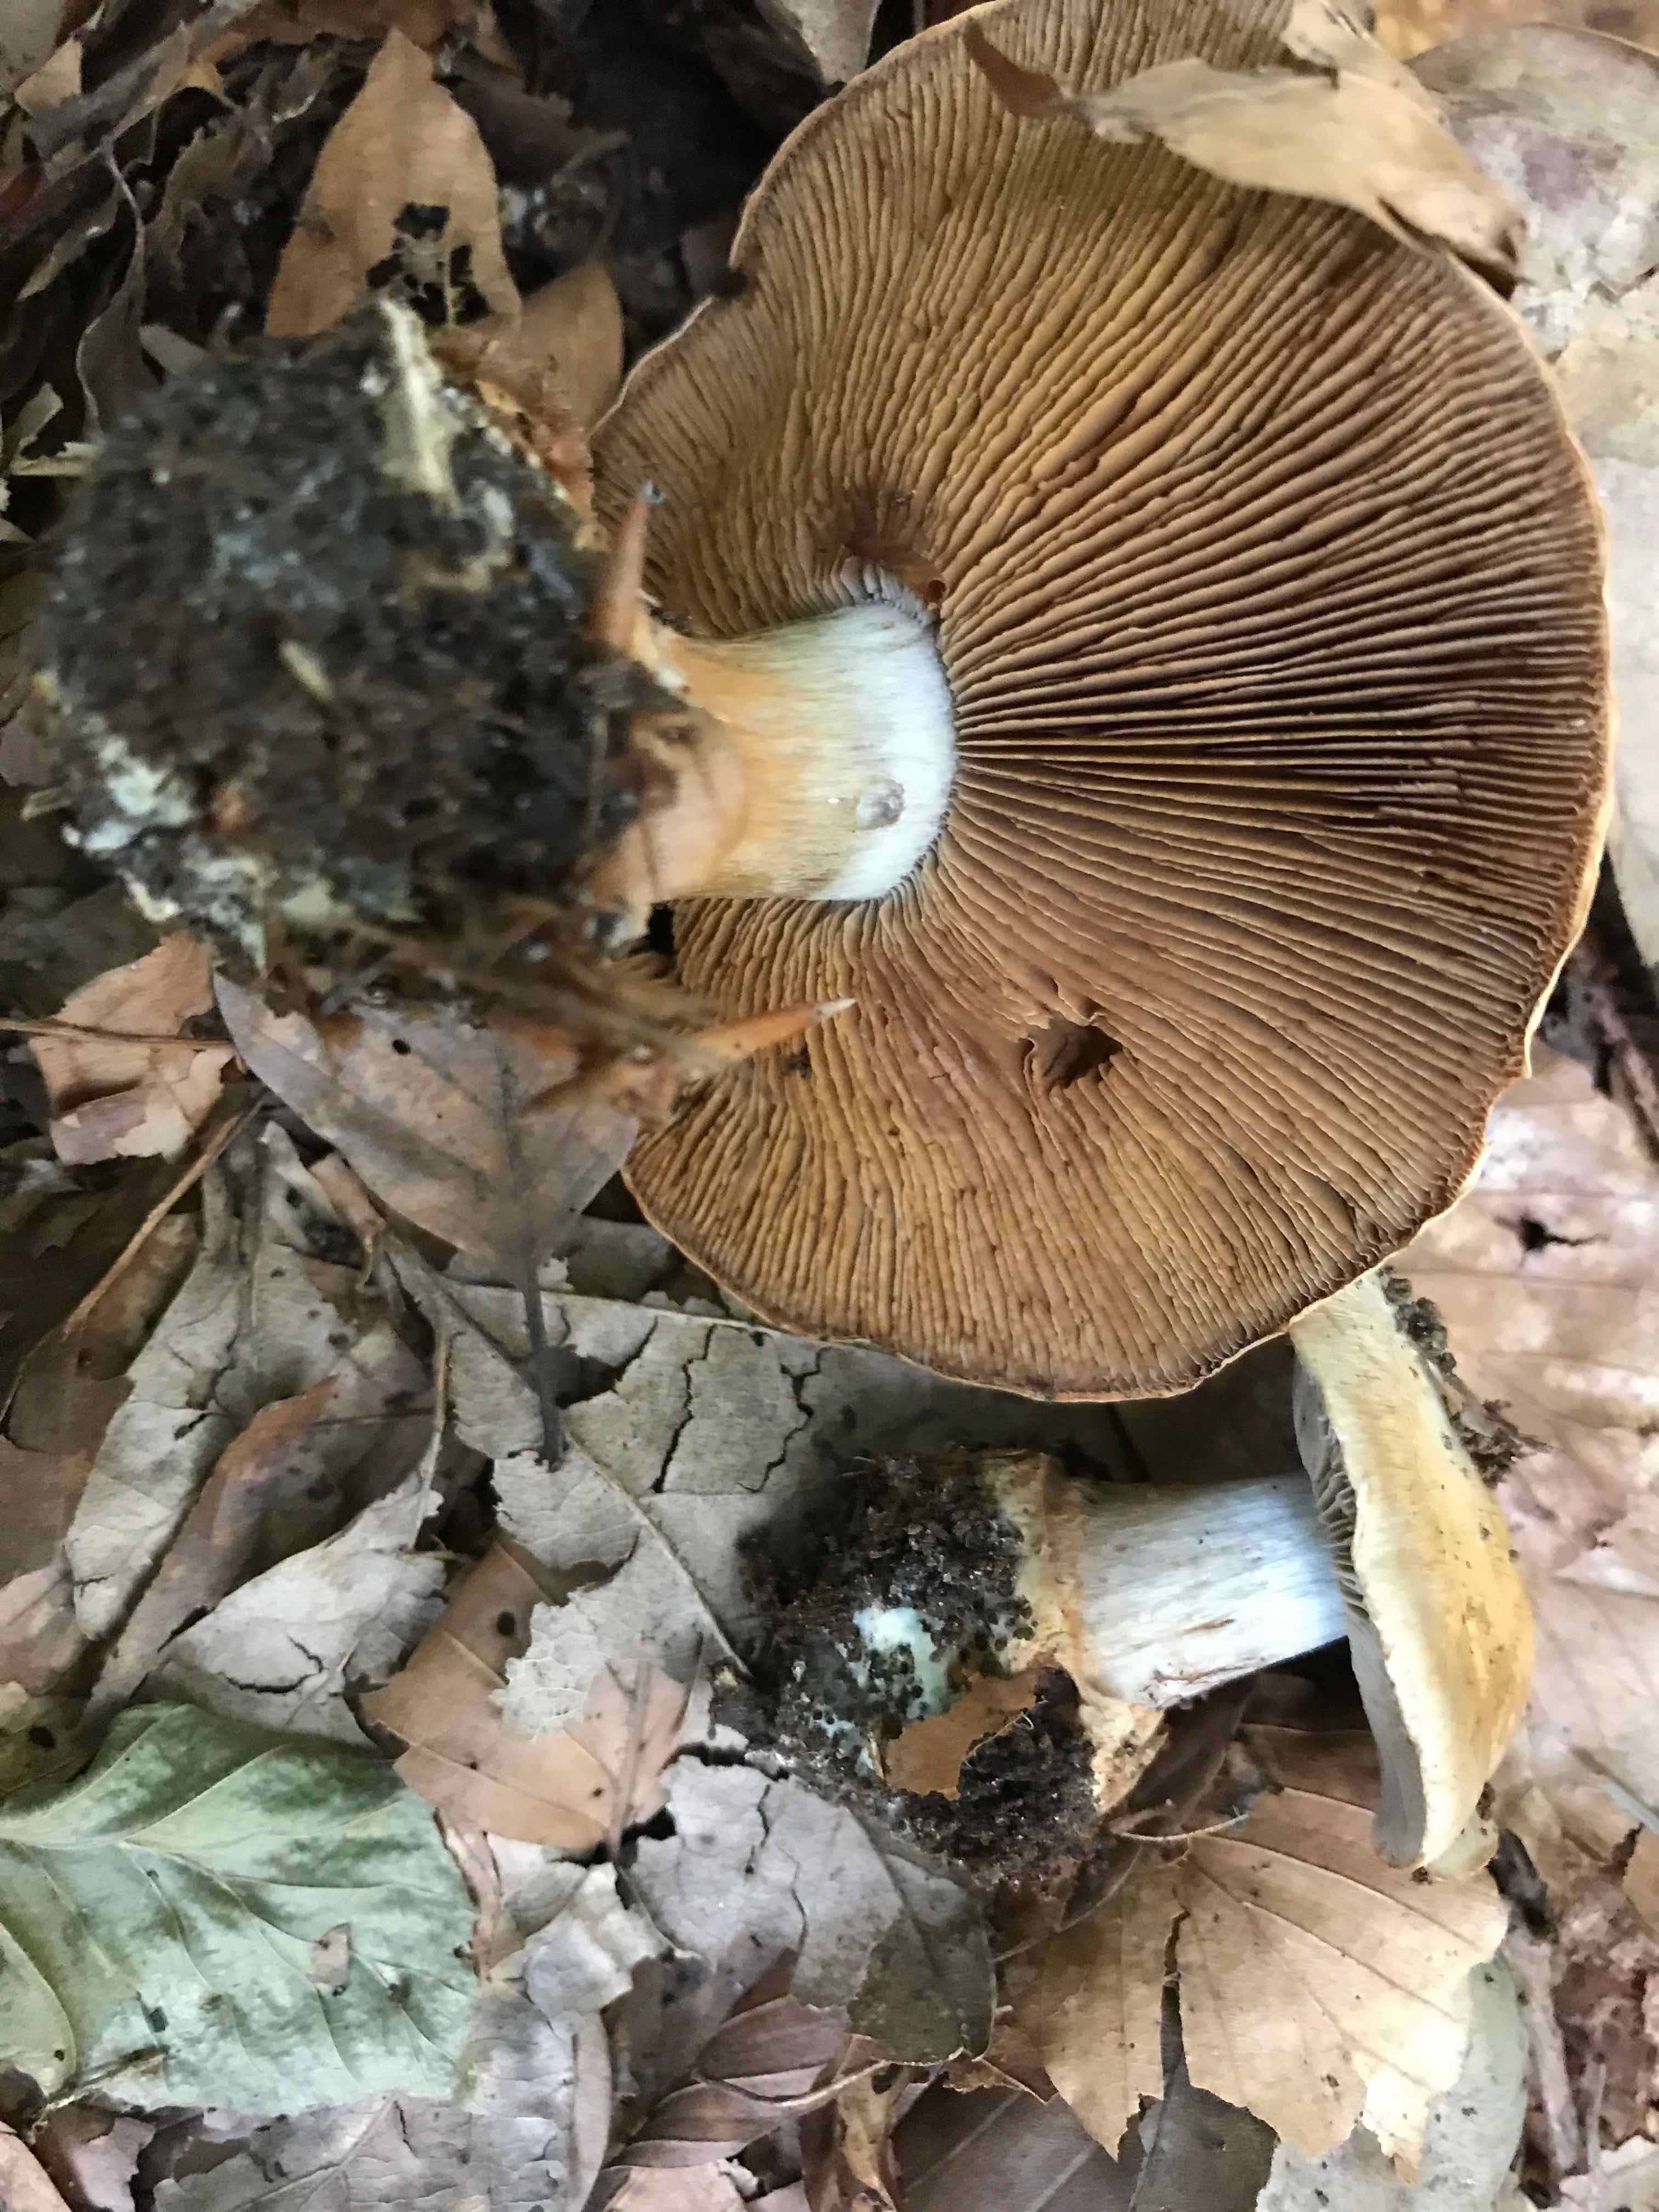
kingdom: Fungi
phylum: Basidiomycota
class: Agaricomycetes
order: Agaricales
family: Cortinariaceae
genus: Cortinarius
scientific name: Cortinarius anserinus
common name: bøge-slørhat
